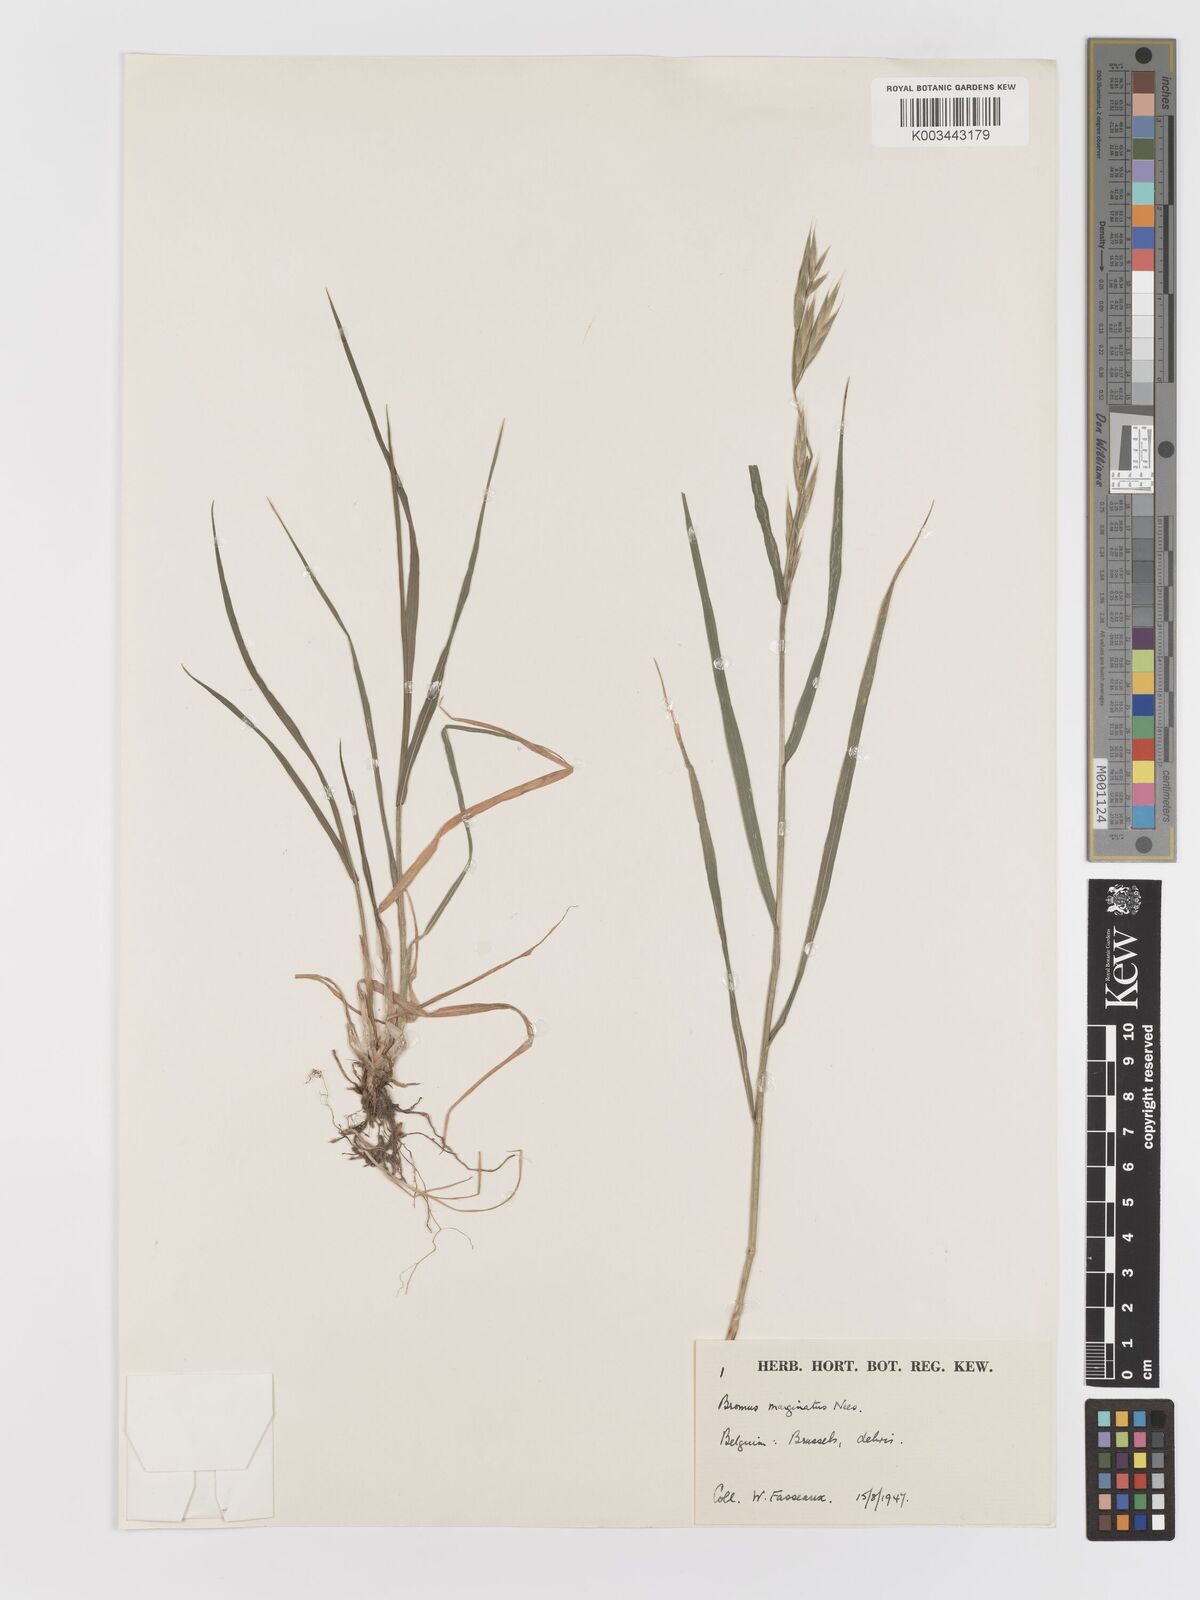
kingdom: Plantae
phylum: Tracheophyta
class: Liliopsida
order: Poales
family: Poaceae
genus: Bromus
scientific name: Bromus marginatus
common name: Western brome
